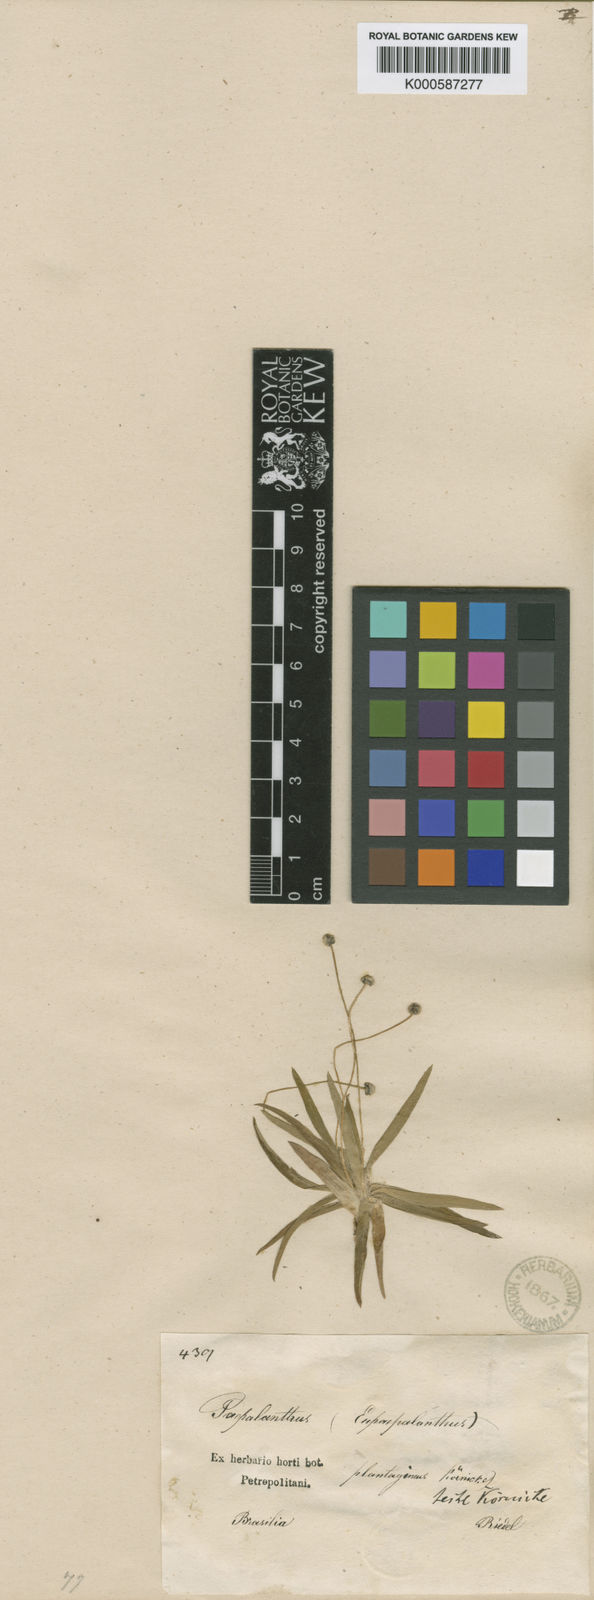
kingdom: Plantae
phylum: Tracheophyta
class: Liliopsida
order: Poales
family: Eriocaulaceae
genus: Paepalanthus
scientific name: Paepalanthus
